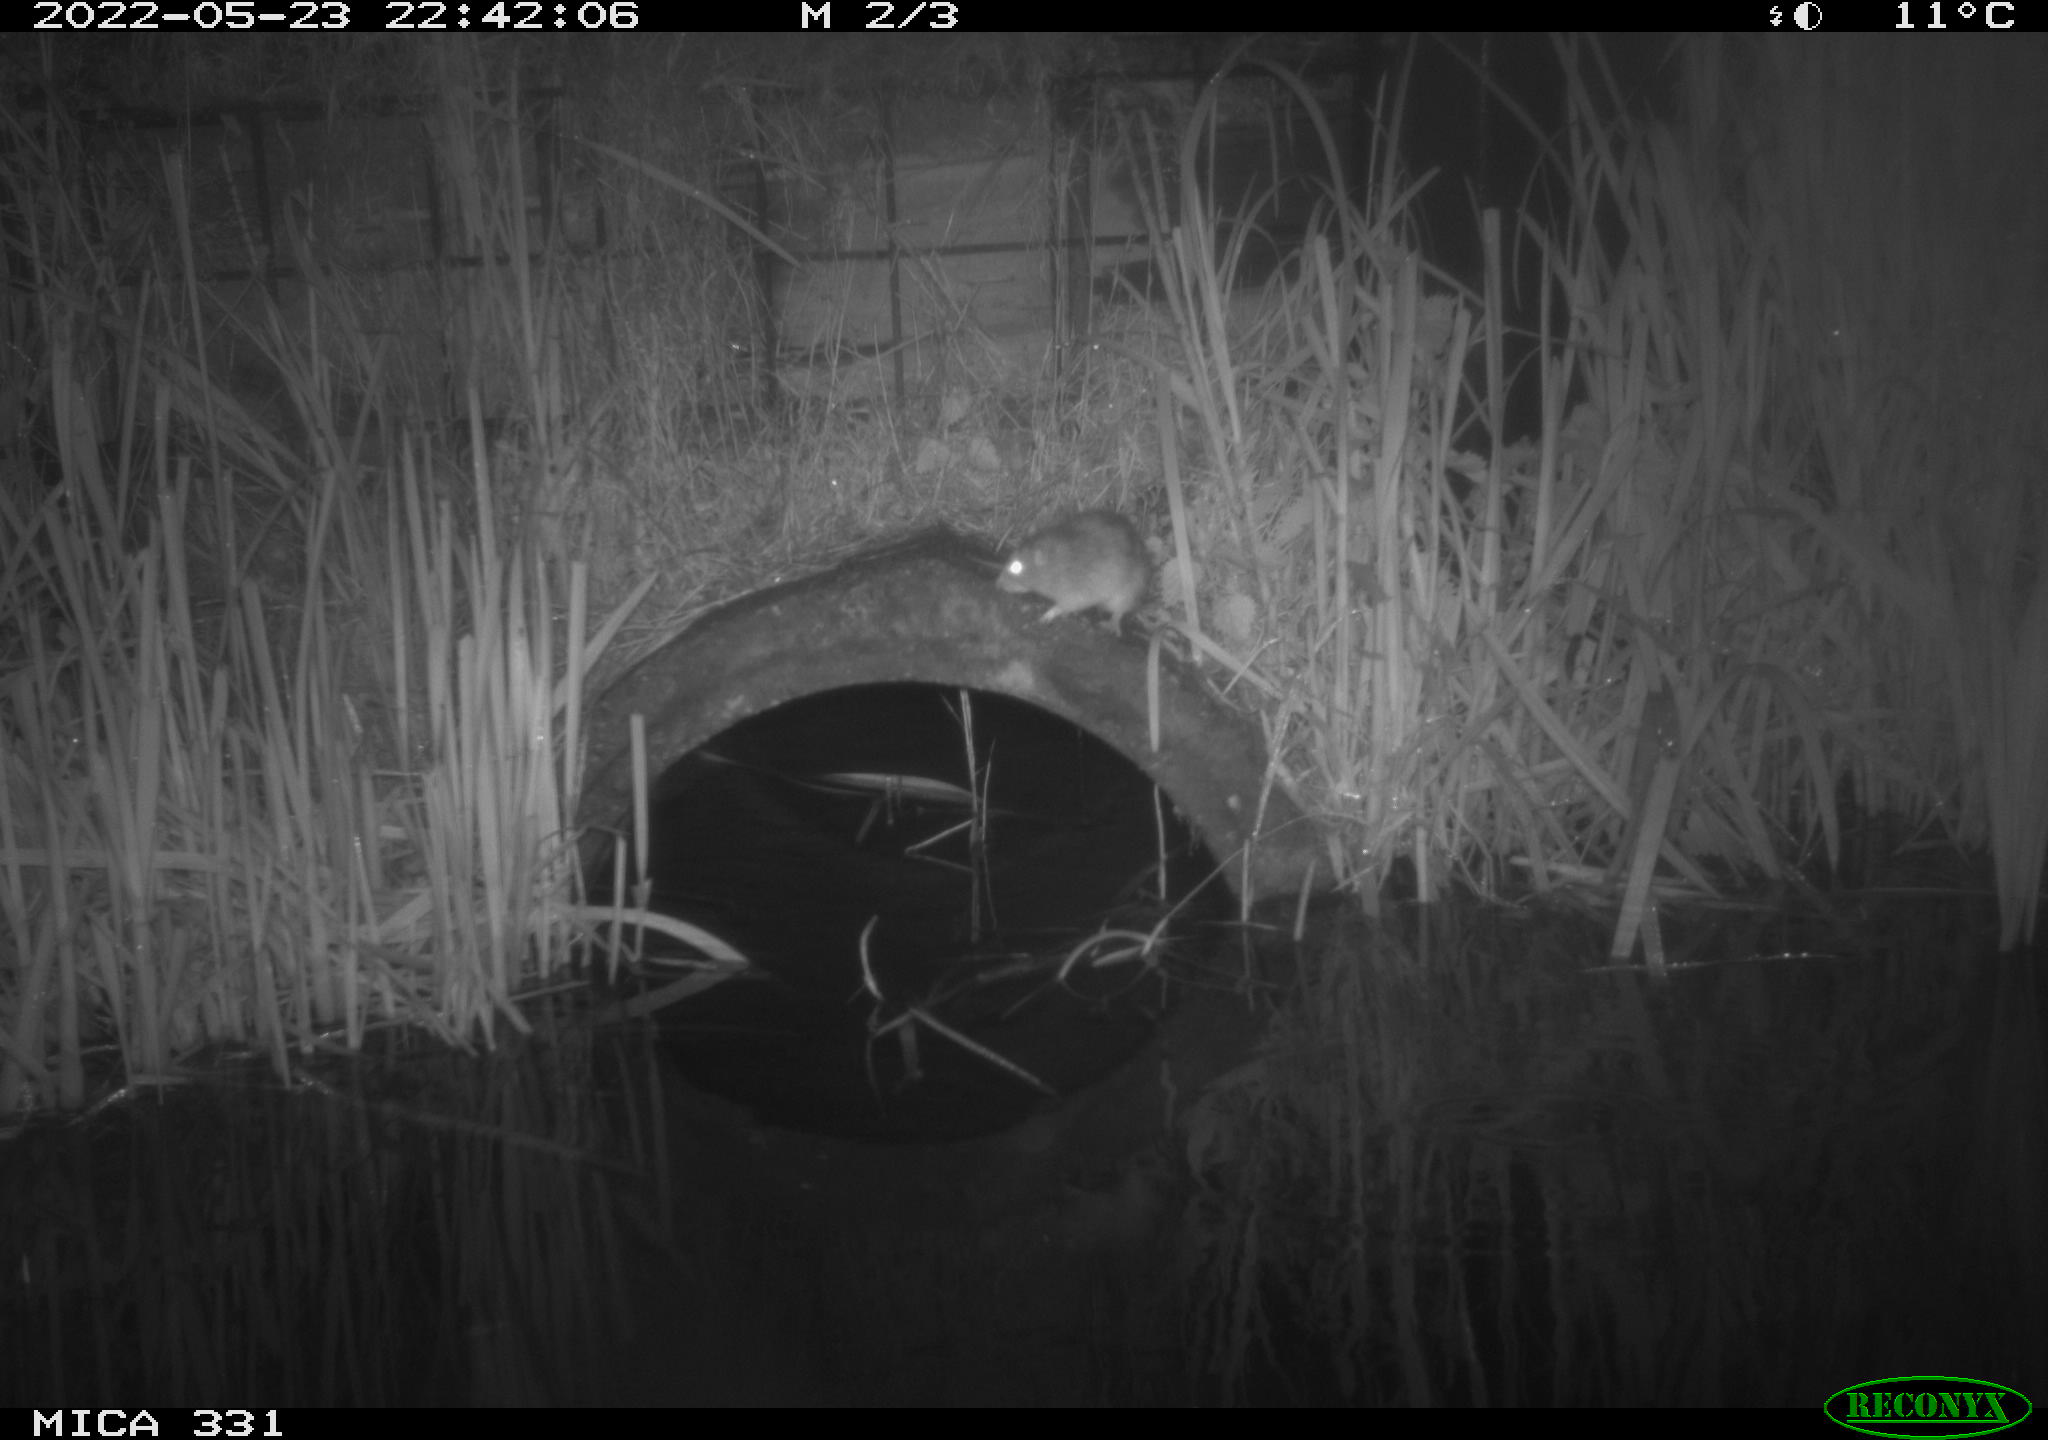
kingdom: Animalia
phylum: Chordata
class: Mammalia
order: Rodentia
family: Muridae
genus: Rattus
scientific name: Rattus norvegicus
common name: Brown rat
